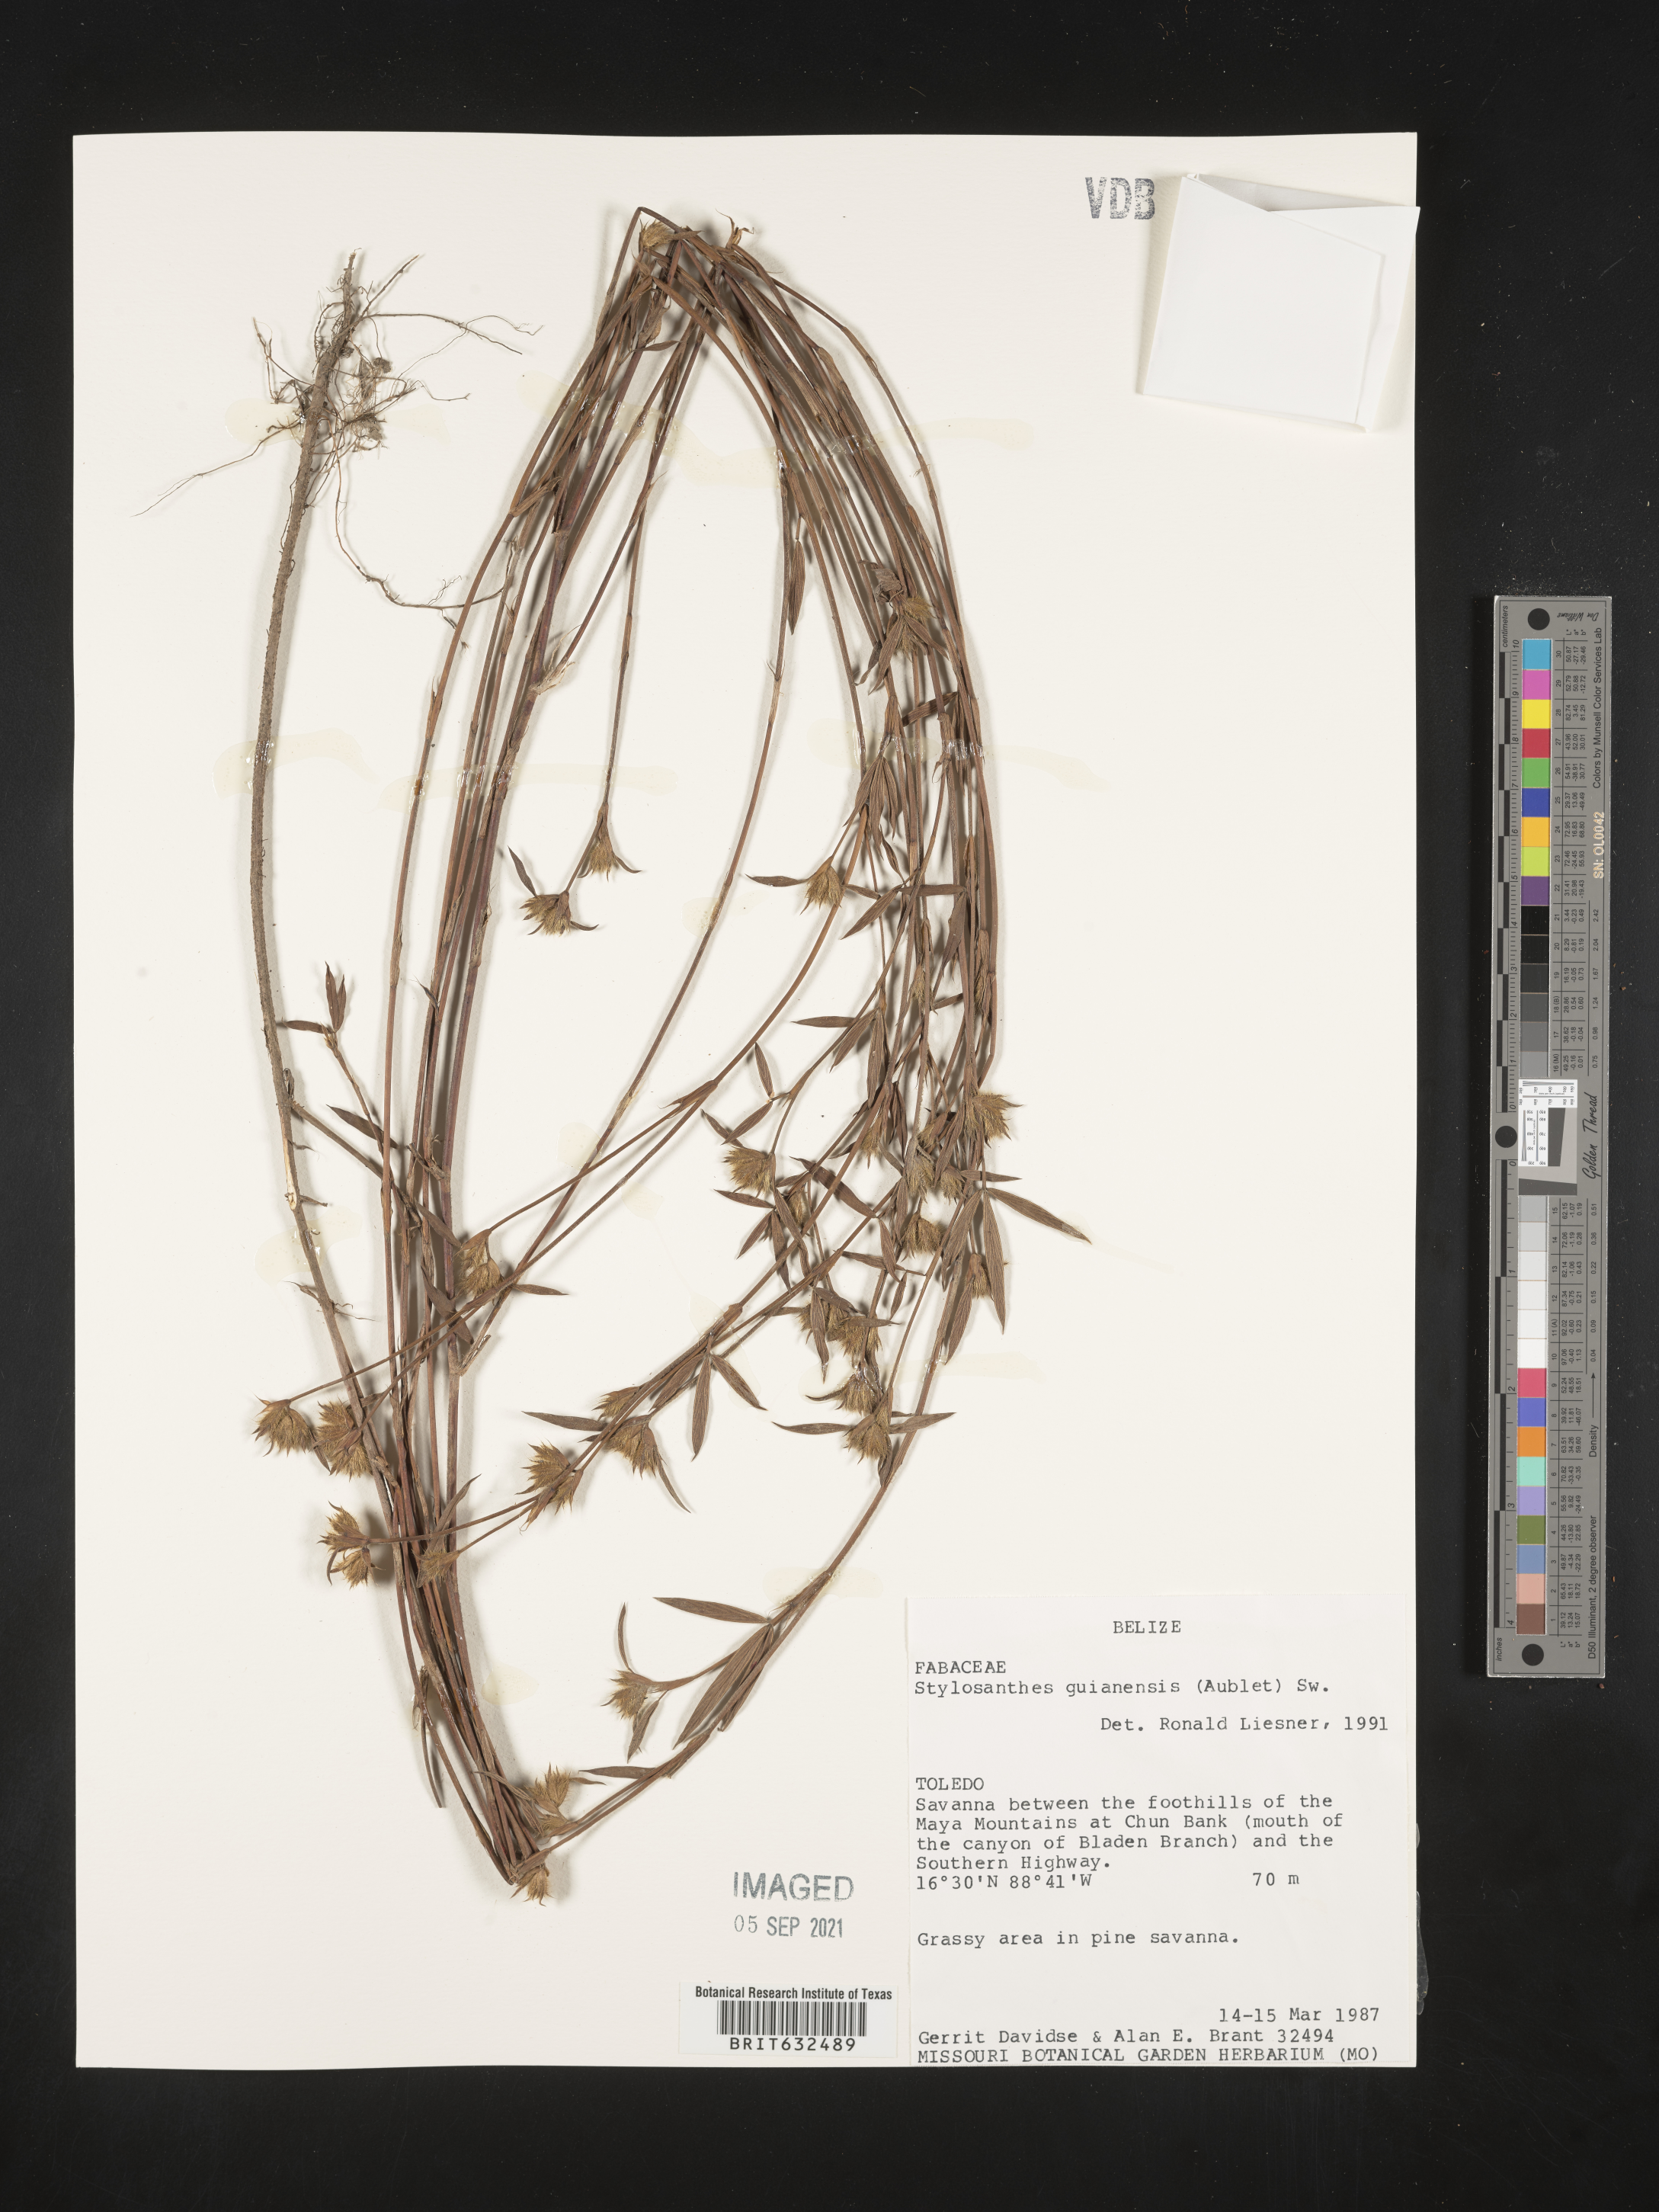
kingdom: Plantae
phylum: Tracheophyta
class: Magnoliopsida
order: Fabales
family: Fabaceae
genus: Stylosanthes
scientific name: Stylosanthes
